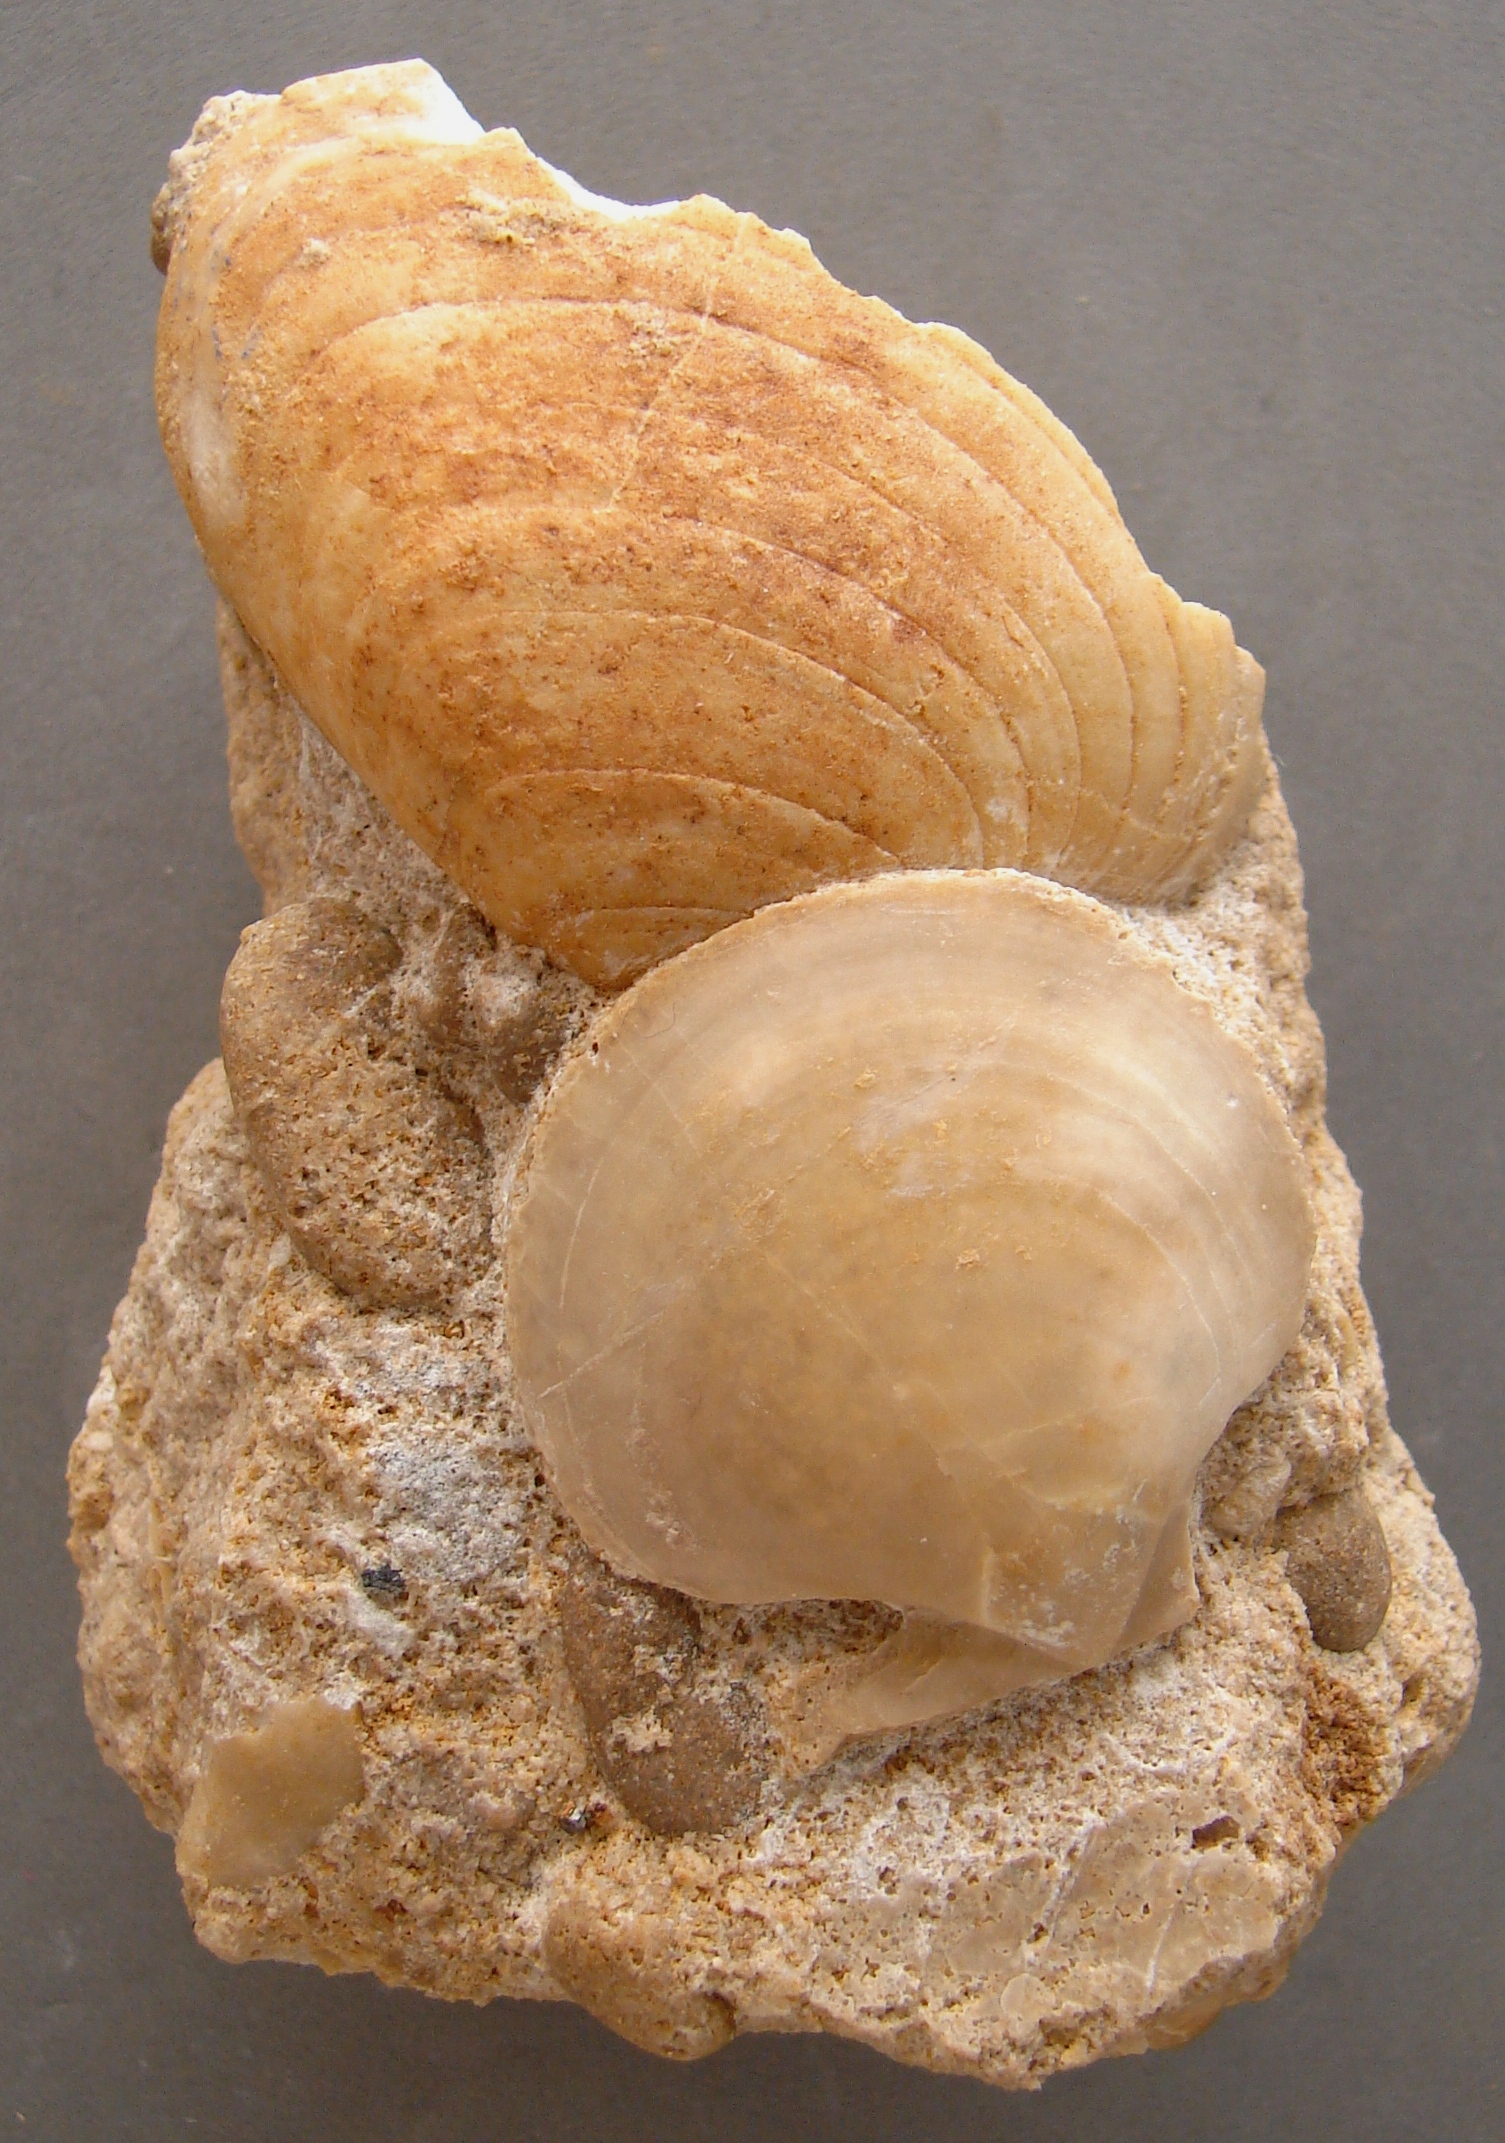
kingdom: Animalia
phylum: Mollusca
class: Bivalvia
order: Pectinida
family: Pectinidae
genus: Camptonectes
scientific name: Camptonectes auritus
